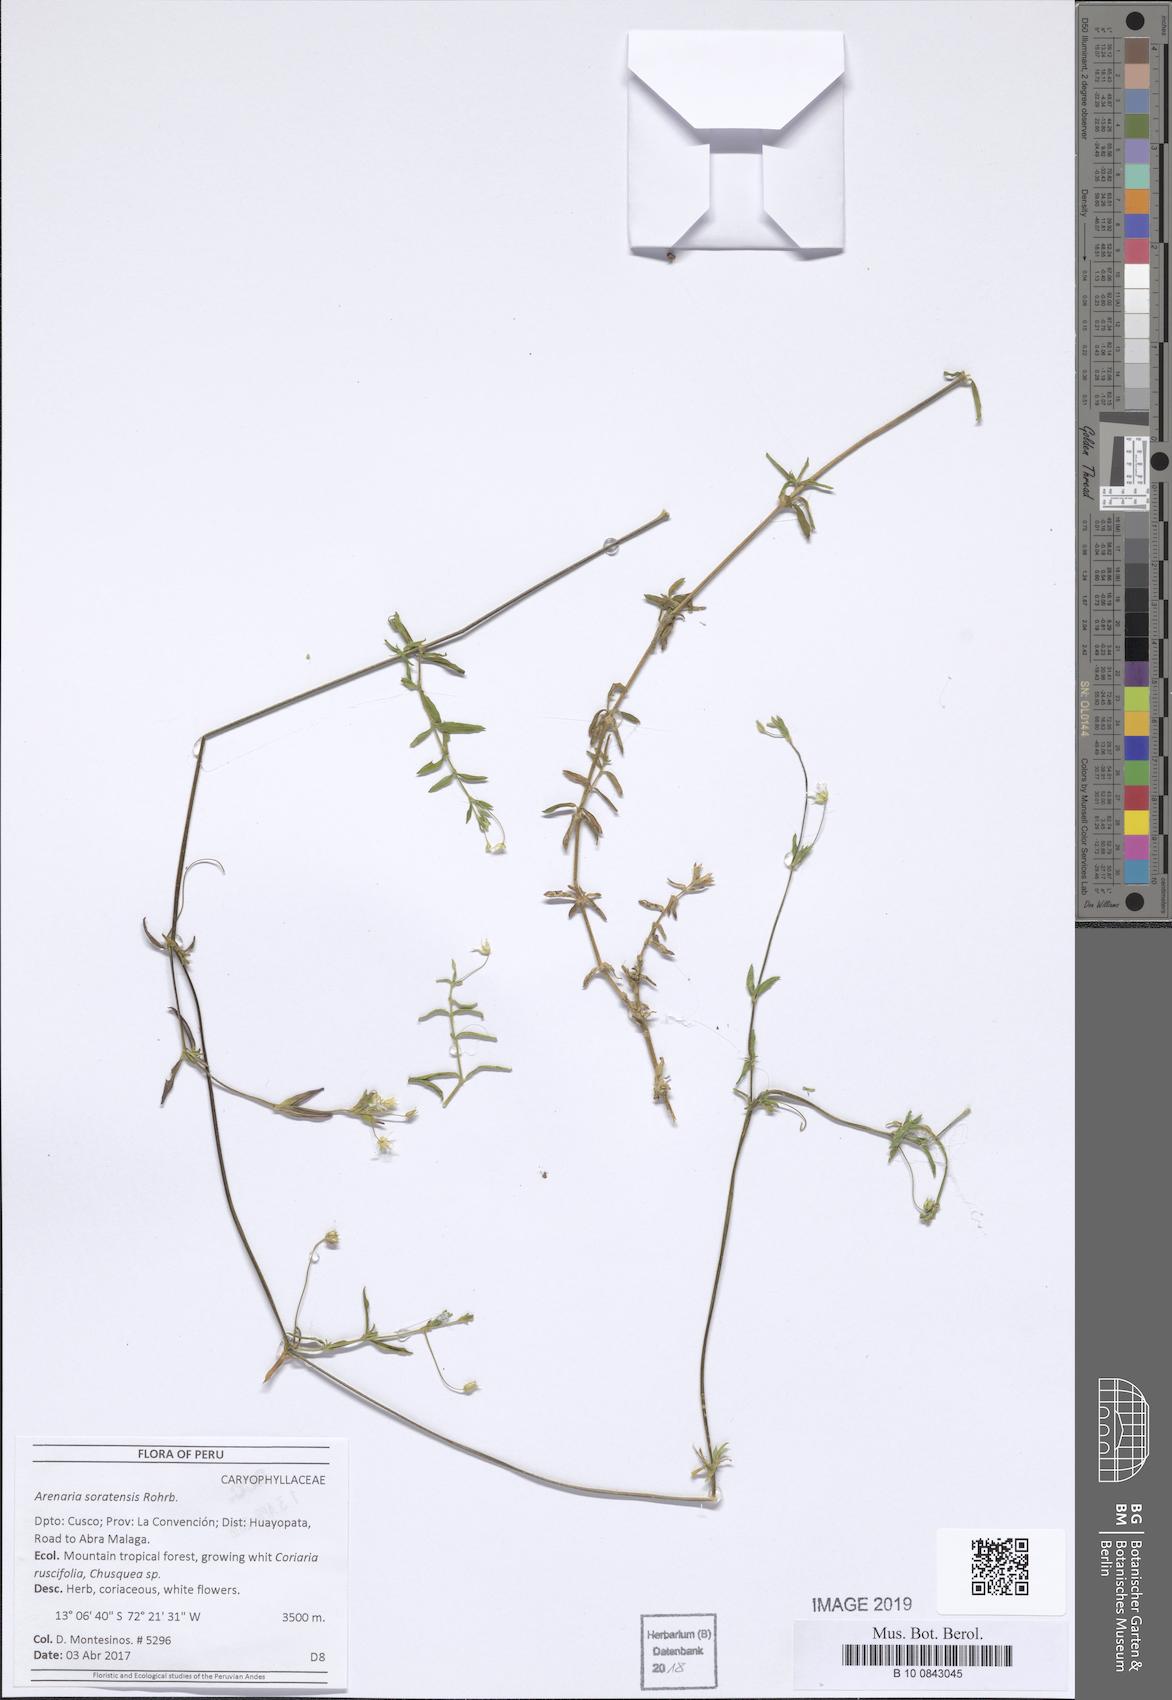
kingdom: Plantae
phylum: Tracheophyta
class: Magnoliopsida
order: Caryophyllales
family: Caryophyllaceae
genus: Arenaria
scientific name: Arenaria soratensis
